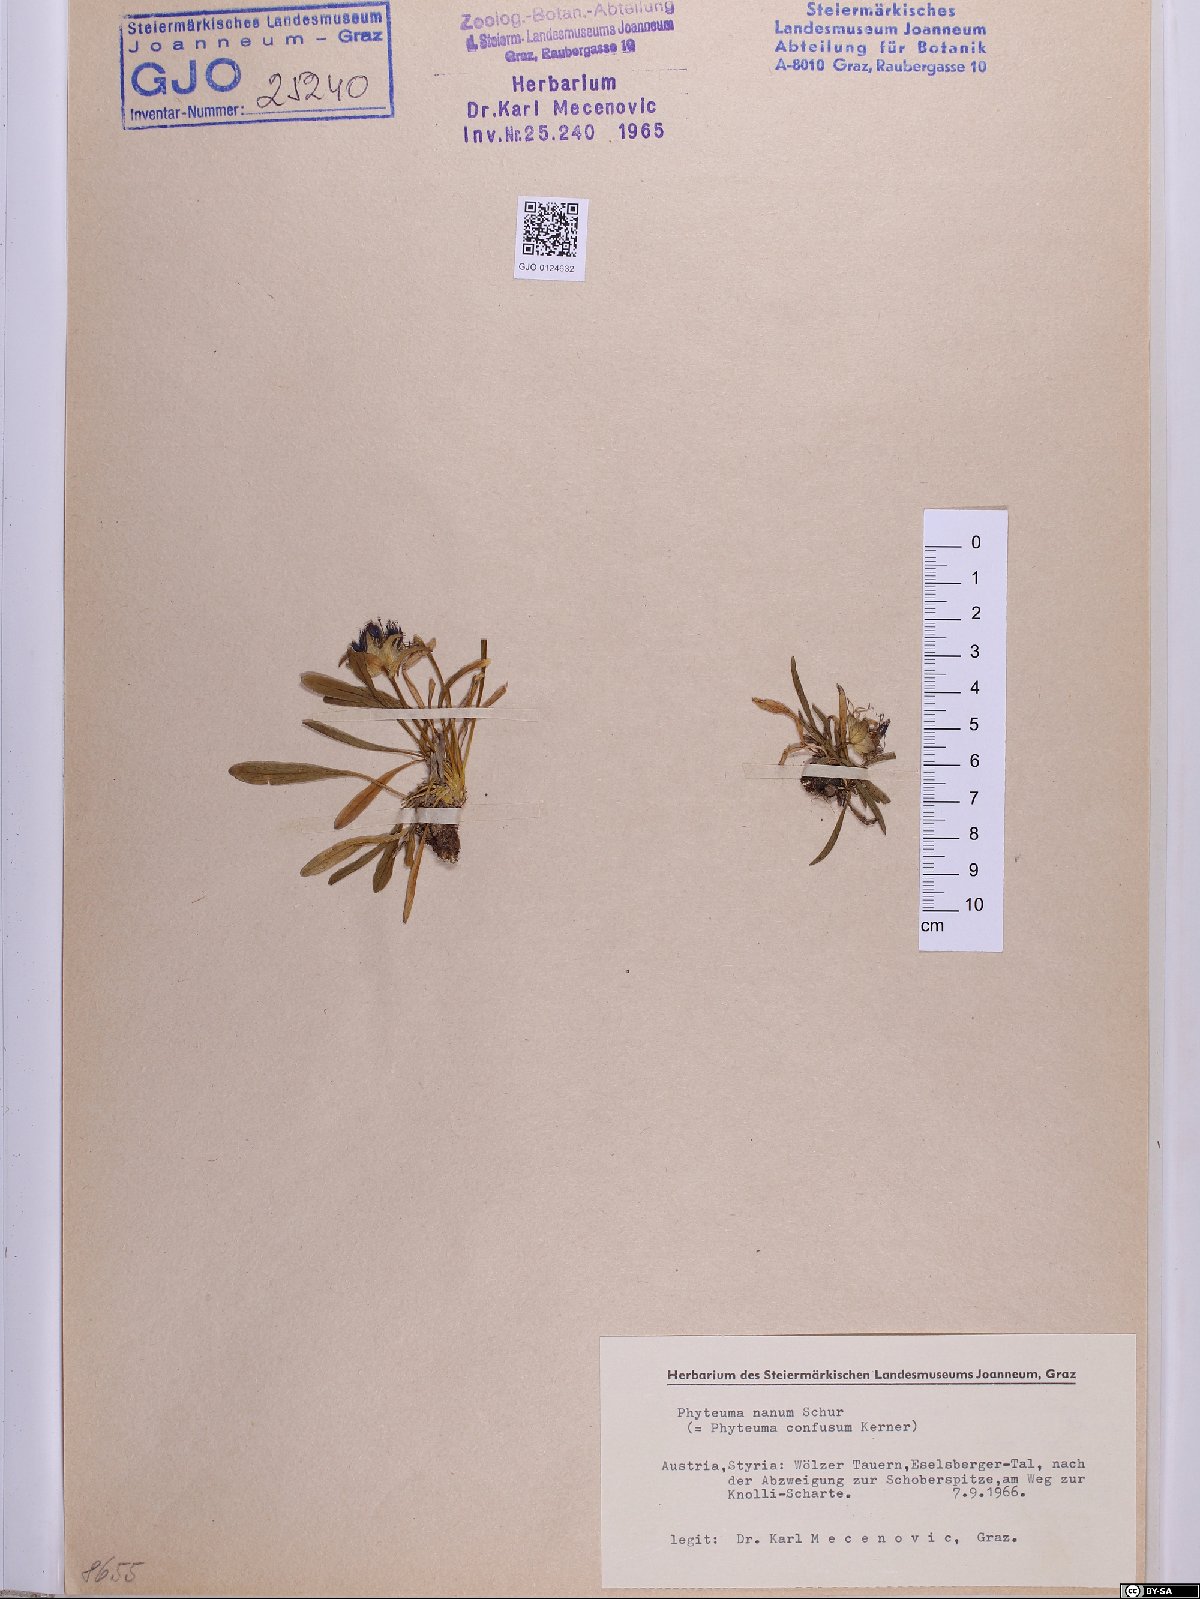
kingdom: Plantae
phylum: Tracheophyta
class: Magnoliopsida
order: Asterales
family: Campanulaceae
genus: Phyteuma
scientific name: Phyteuma globulariifolium
